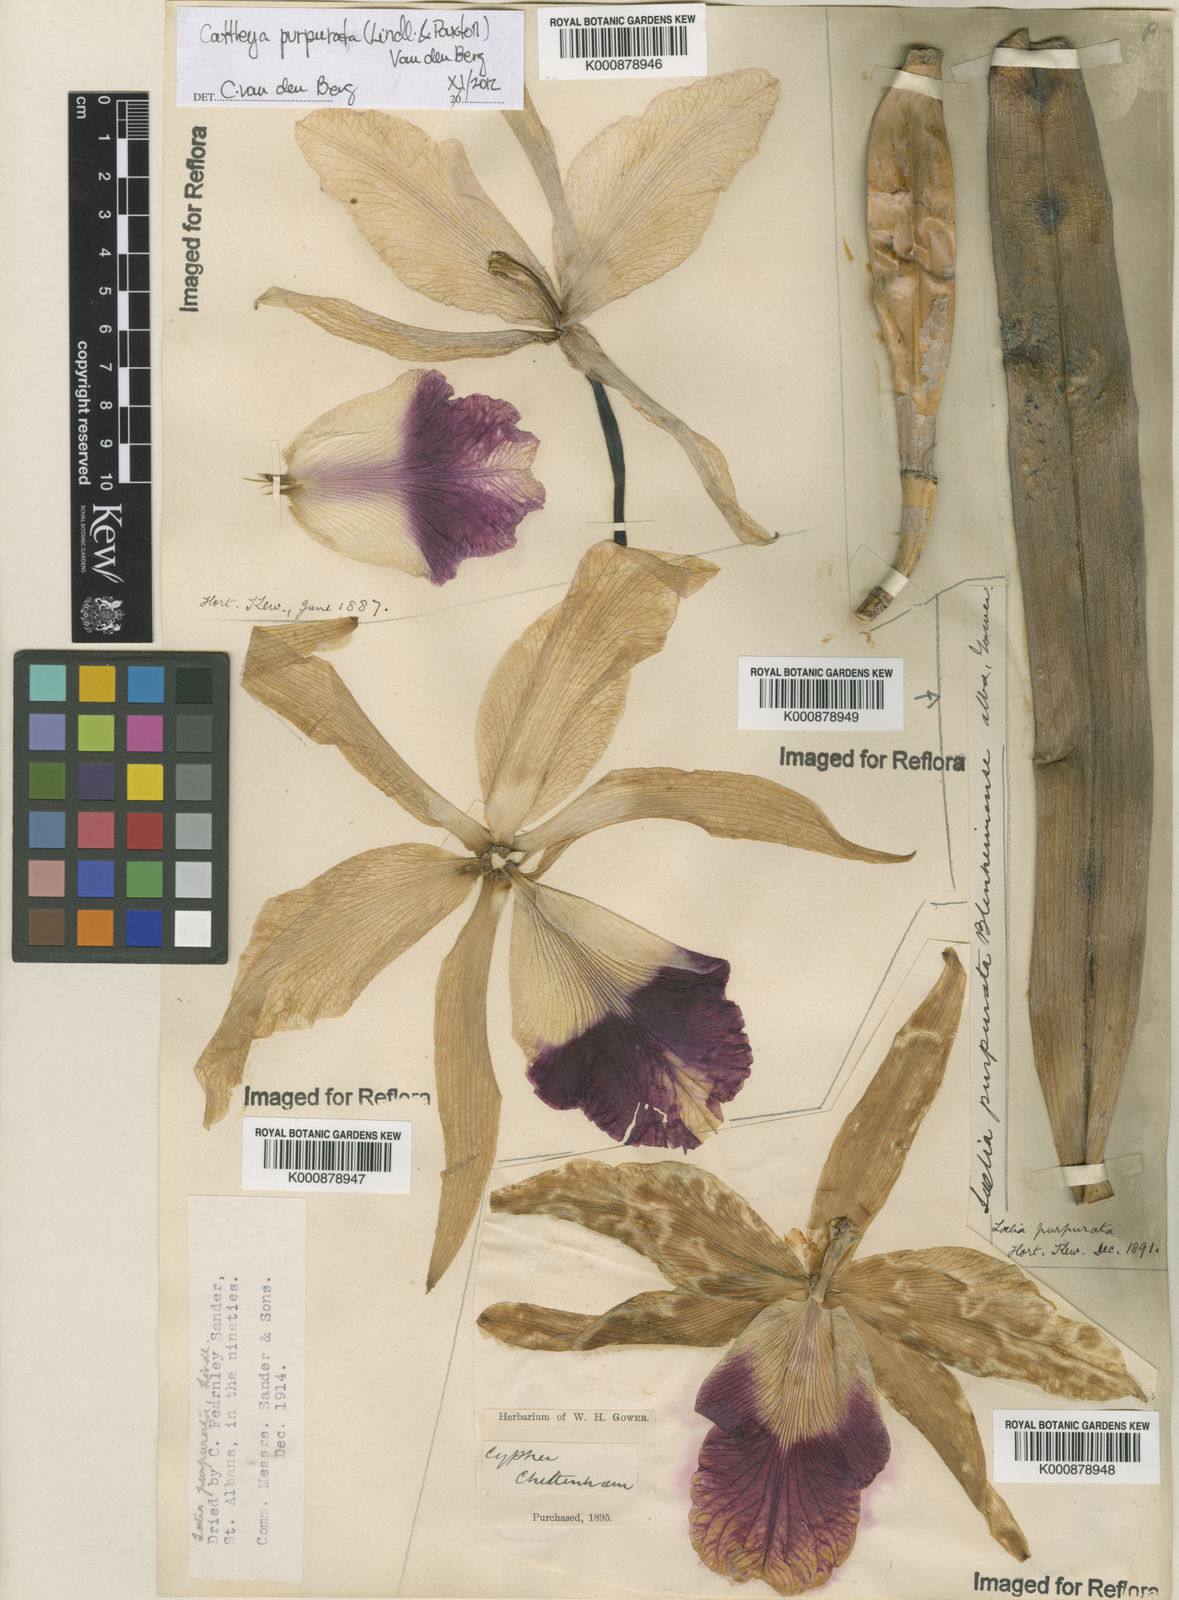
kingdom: Plantae
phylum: Tracheophyta
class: Liliopsida
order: Asparagales
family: Orchidaceae
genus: Cattleya
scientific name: Cattleya
